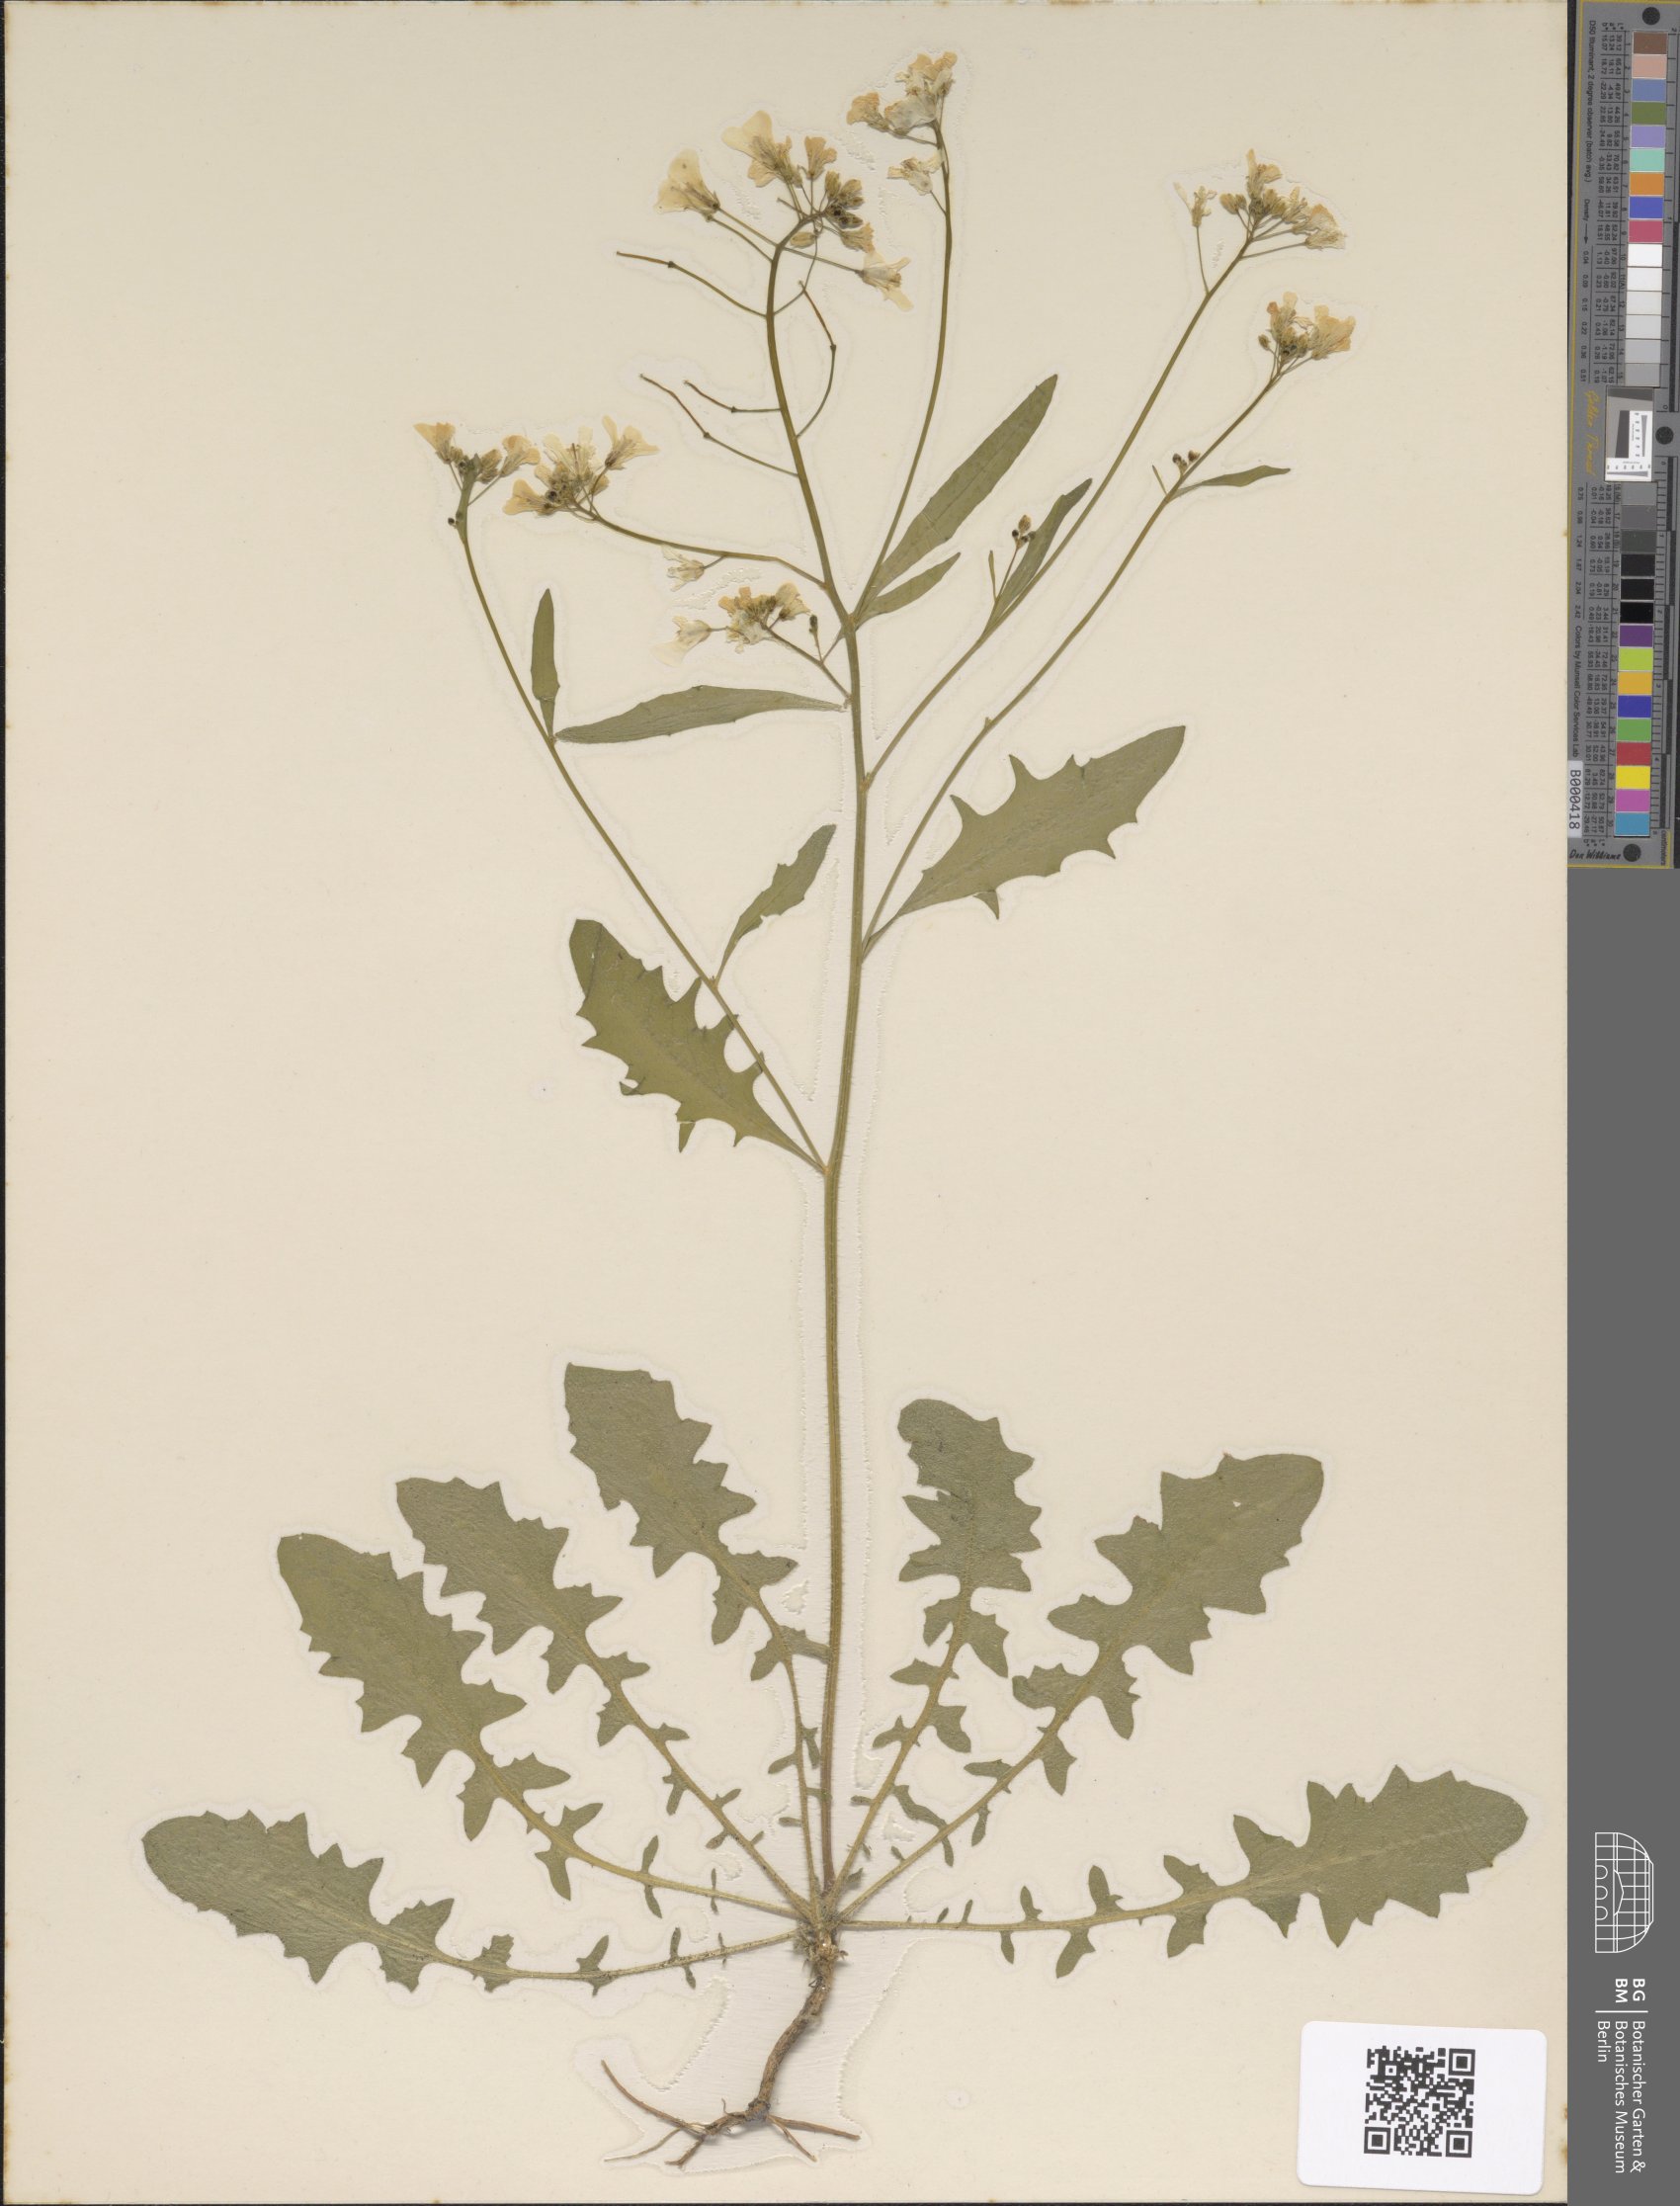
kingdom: Plantae
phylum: Tracheophyta
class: Magnoliopsida
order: Brassicales
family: Brassicaceae
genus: Arabidopsis
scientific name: Arabidopsis arenosa
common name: Sand rock-cress
